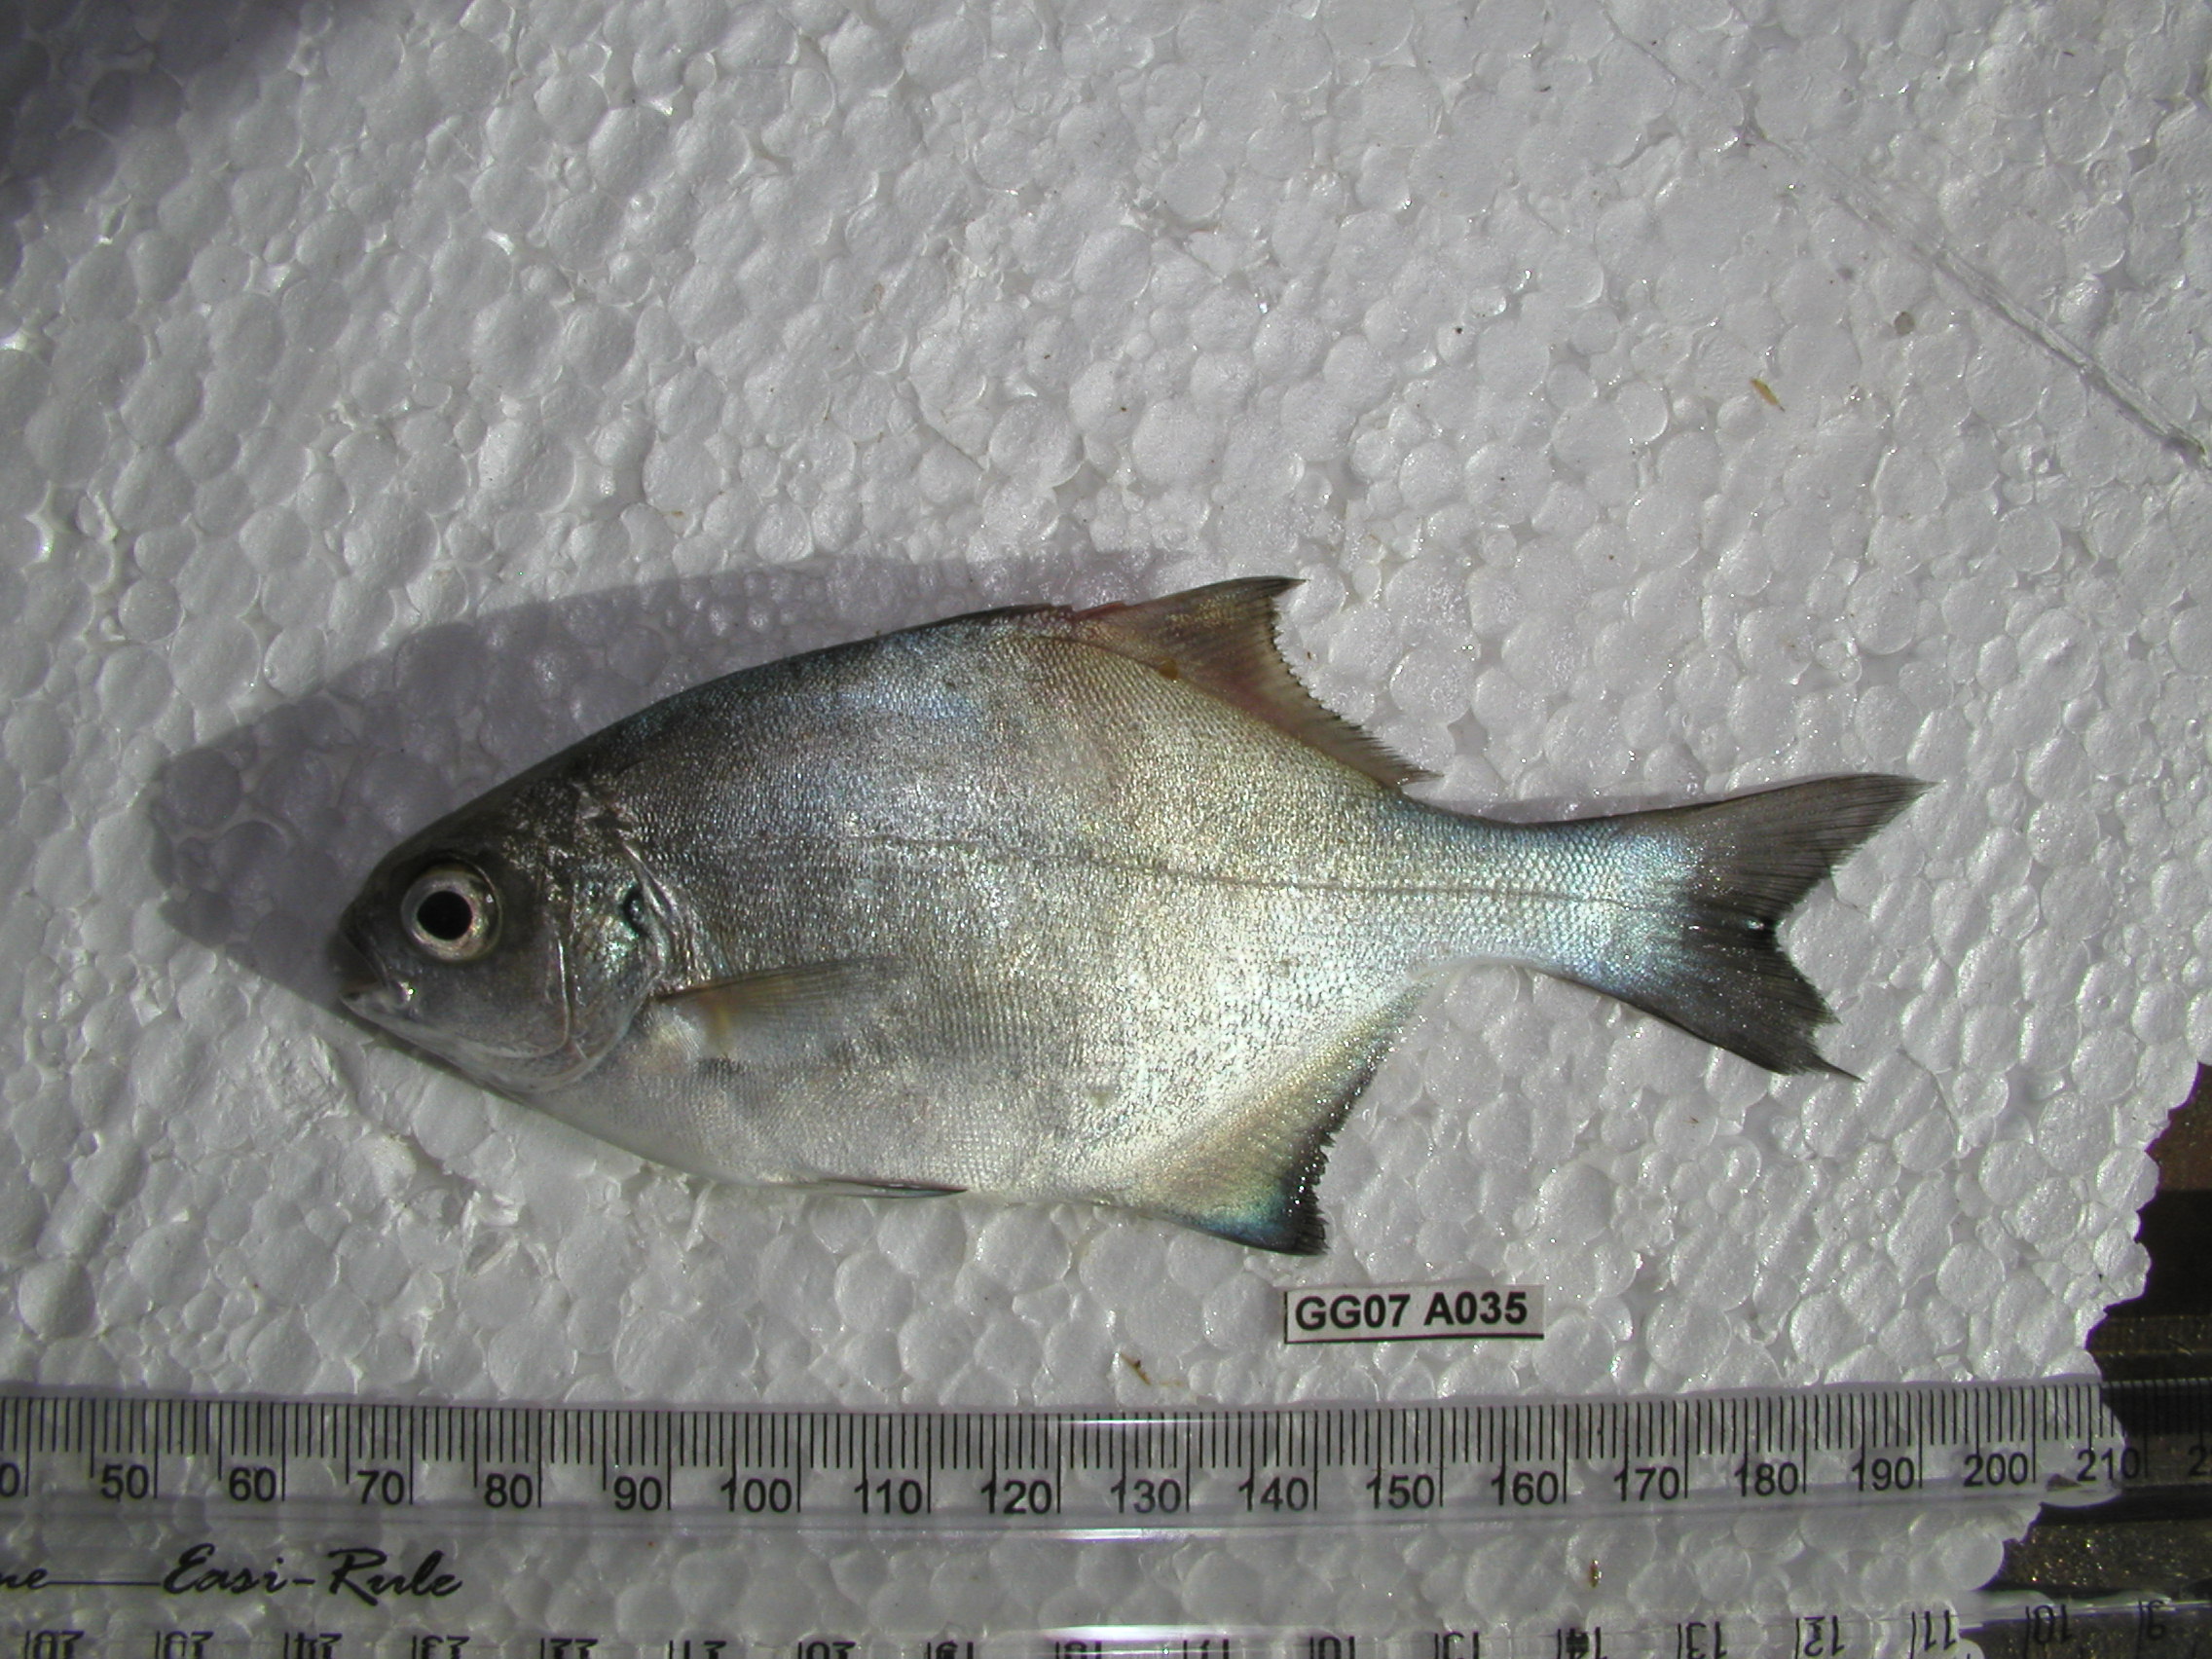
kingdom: Animalia
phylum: Chordata
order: Perciformes
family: Kyphosidae
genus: Neoscorpis
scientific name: Neoscorpis lithophilus
